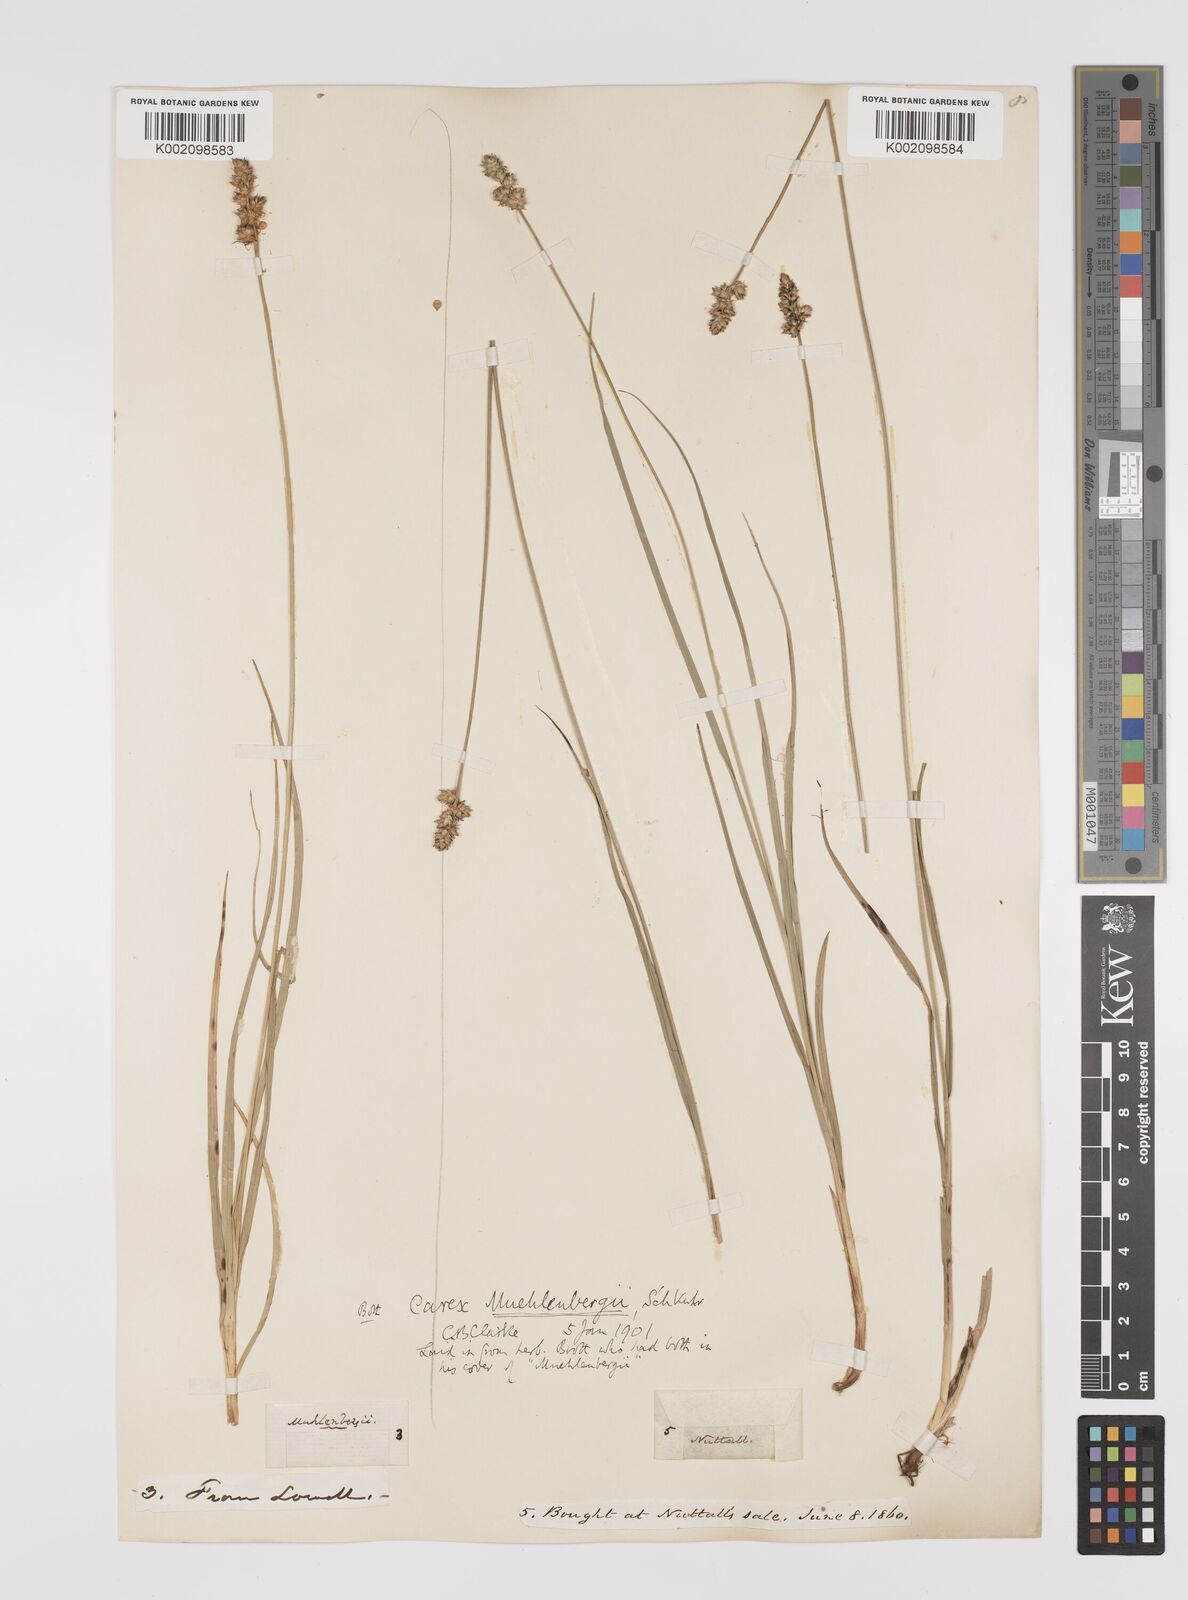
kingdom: Plantae
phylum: Tracheophyta
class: Liliopsida
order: Poales
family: Cyperaceae
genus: Carex
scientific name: Carex vulpinoidea
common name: American fox-sedge
